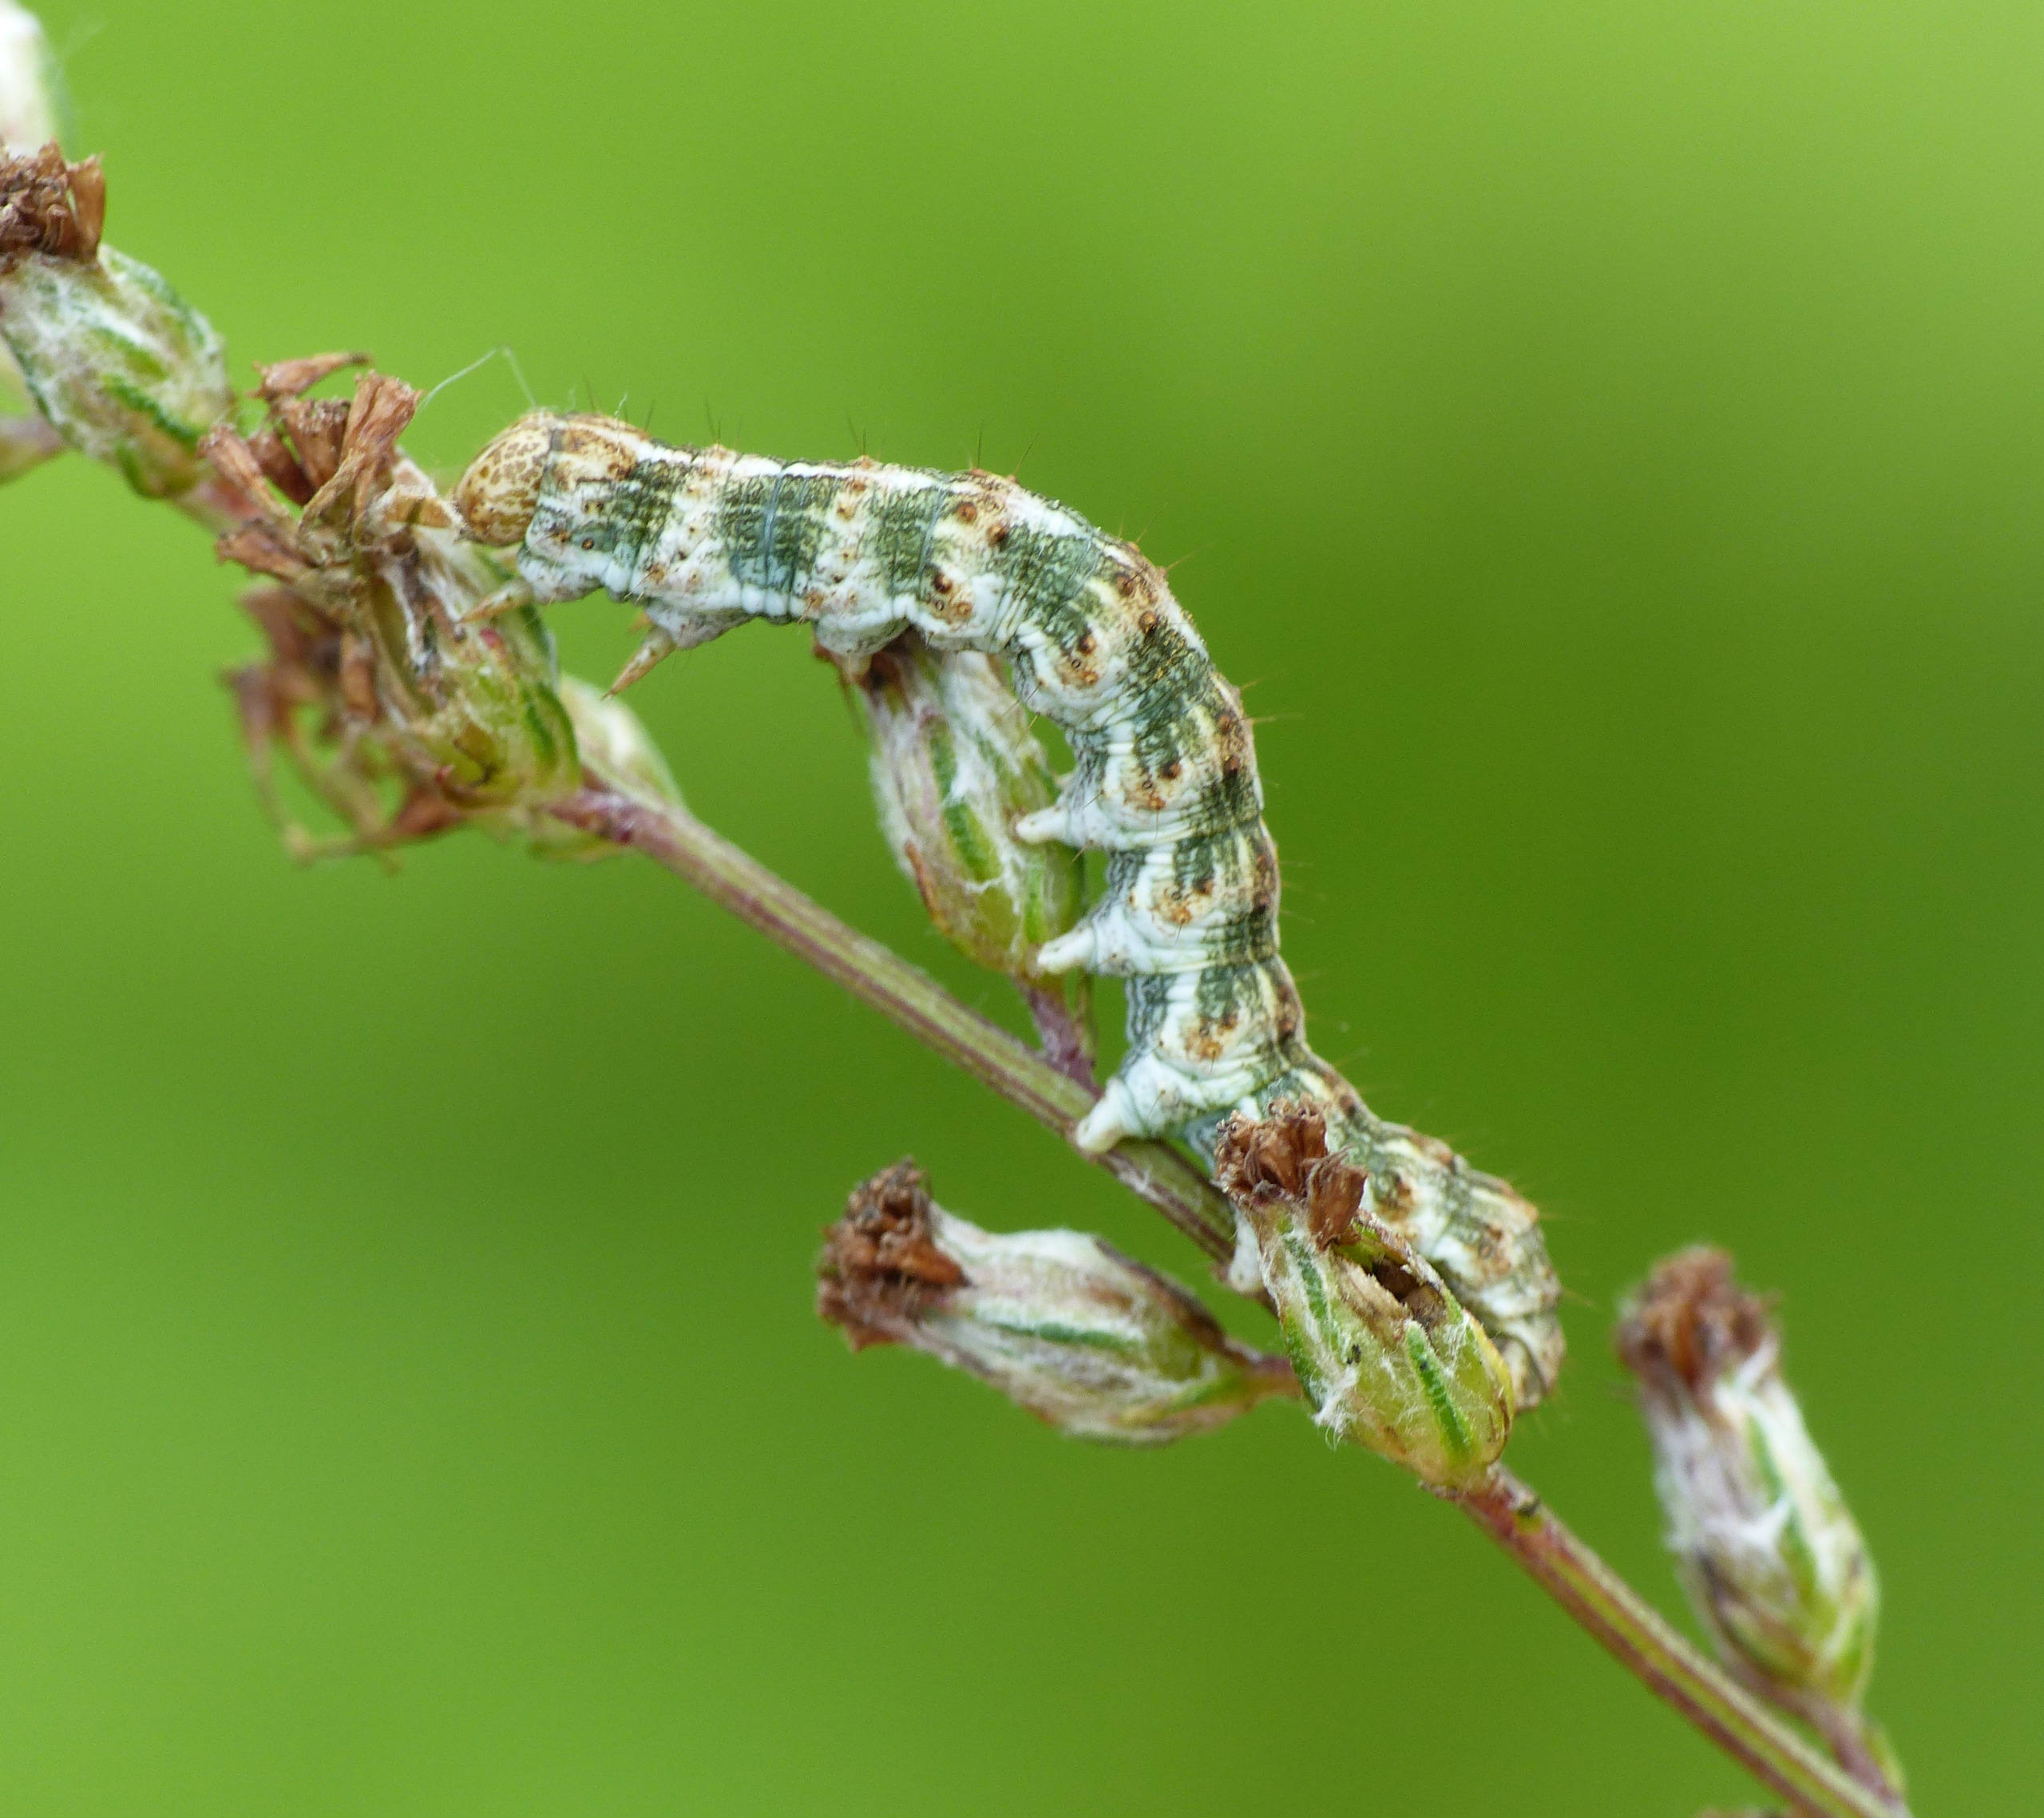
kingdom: Animalia
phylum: Arthropoda
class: Insecta
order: Lepidoptera
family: Noctuidae
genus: Cucullia
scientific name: Cucullia absinthii
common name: Bynke-hætteugle
